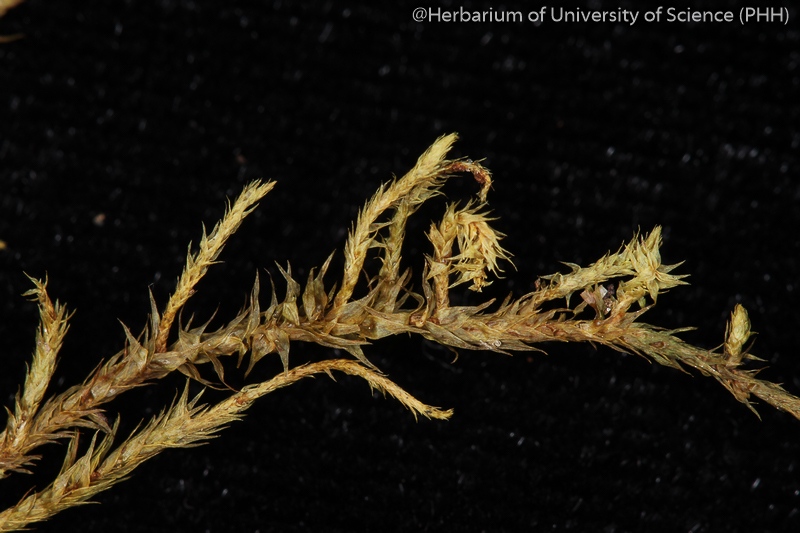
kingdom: Plantae
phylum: Bryophyta
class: Bryopsida
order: Hypnales
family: Cryphaeaceae
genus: Pilotrichopsis
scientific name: Pilotrichopsis dentata
